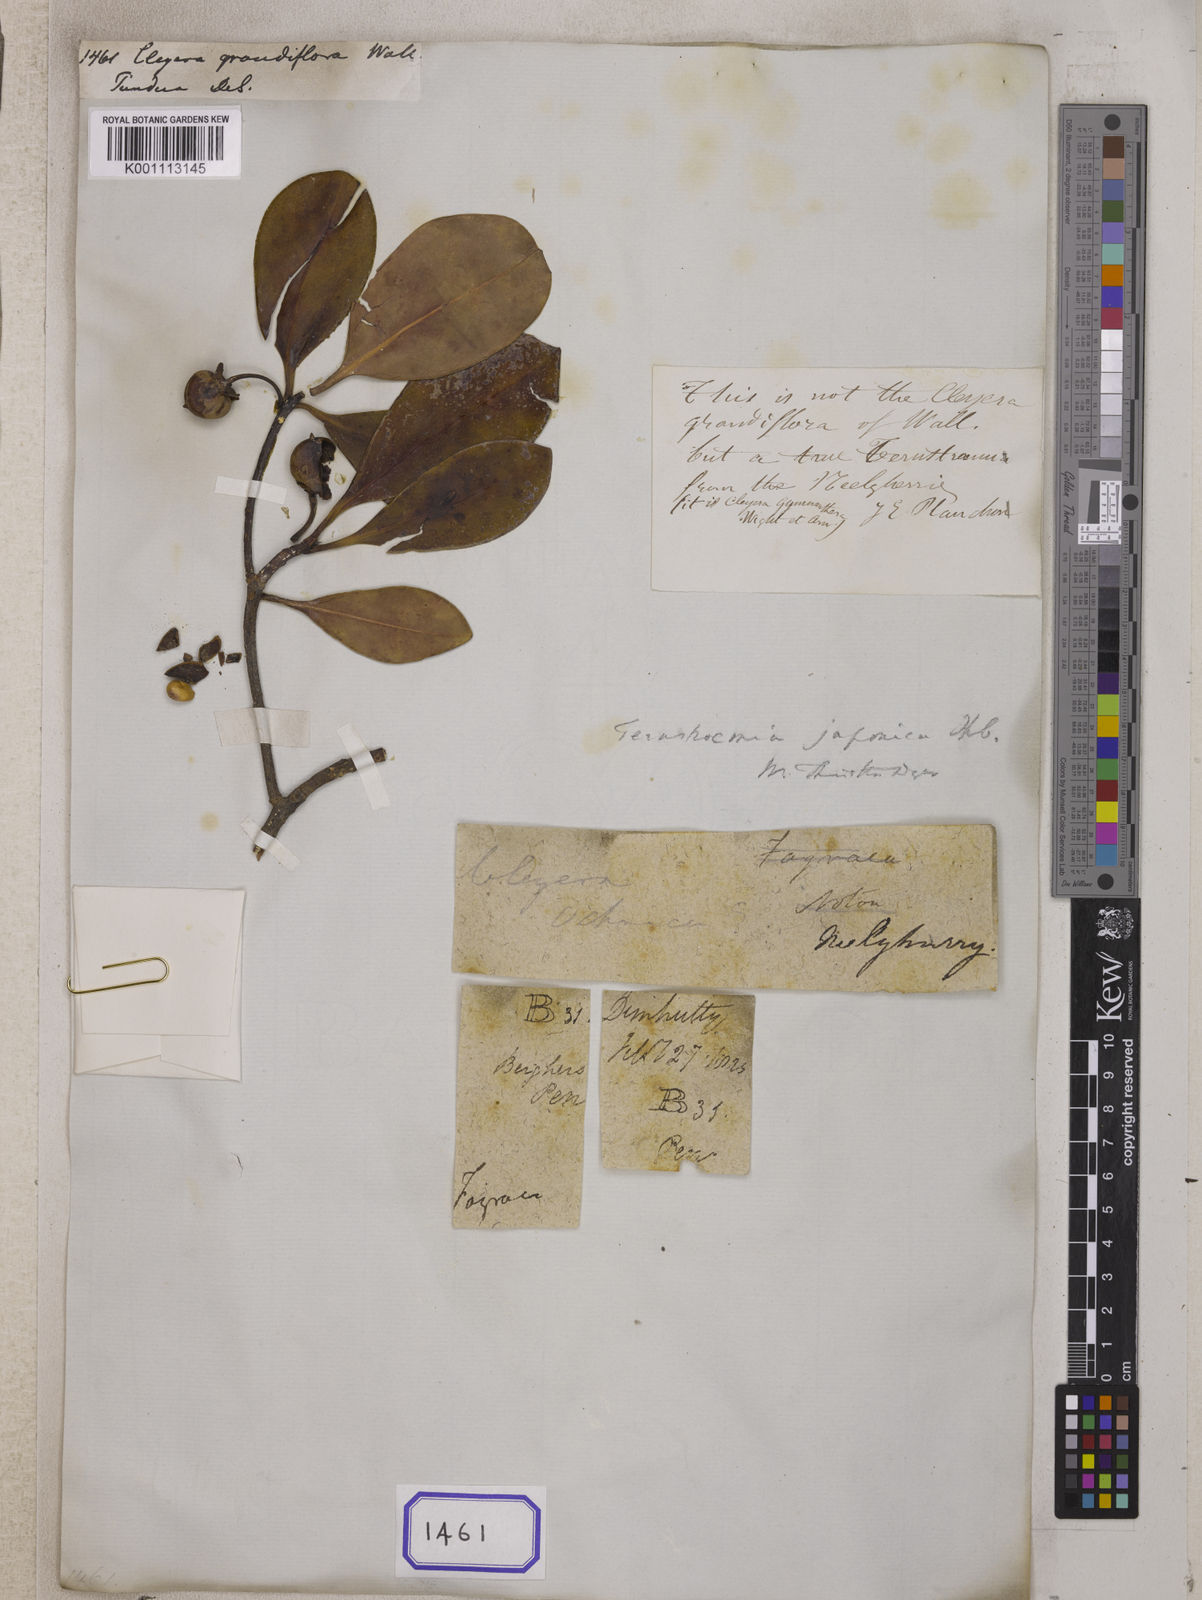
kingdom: Plantae
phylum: Tracheophyta
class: Magnoliopsida
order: Ericales
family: Pentaphylacaceae
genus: Cleyera
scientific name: Cleyera
